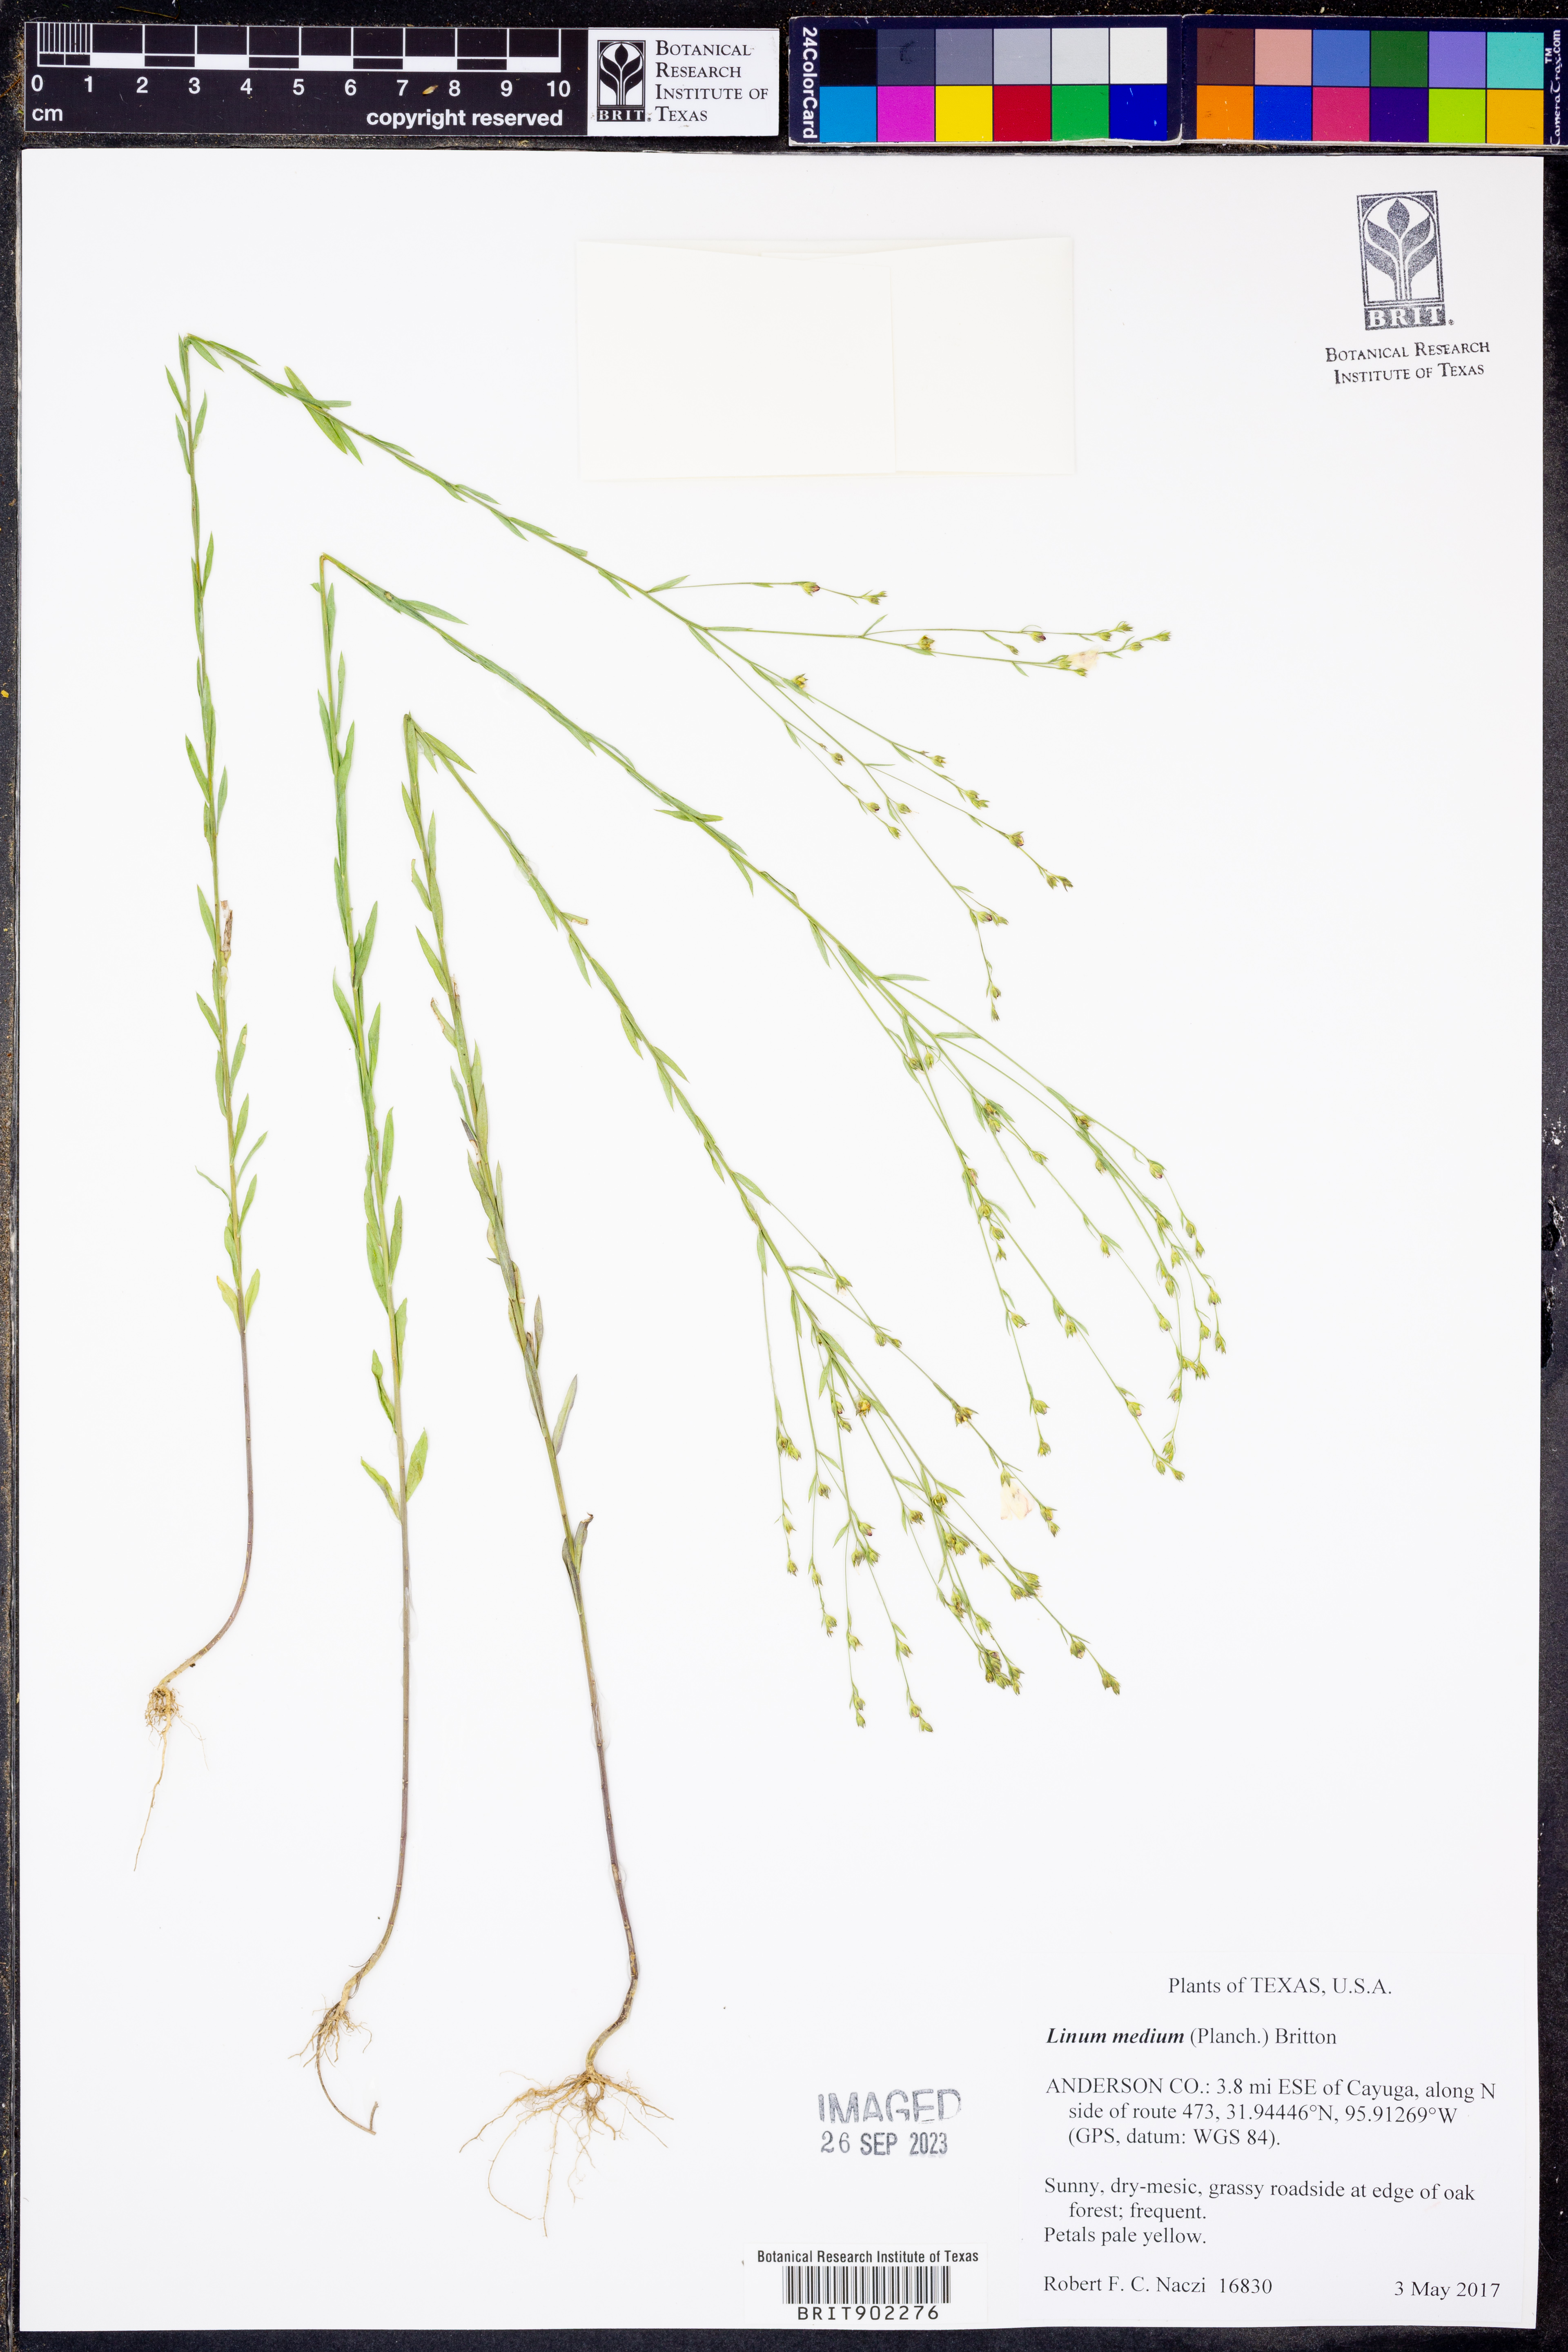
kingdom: Plantae
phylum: Tracheophyta
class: Magnoliopsida
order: Malpighiales
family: Linaceae
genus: Linum
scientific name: Linum medium
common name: Stiff yellow flax
